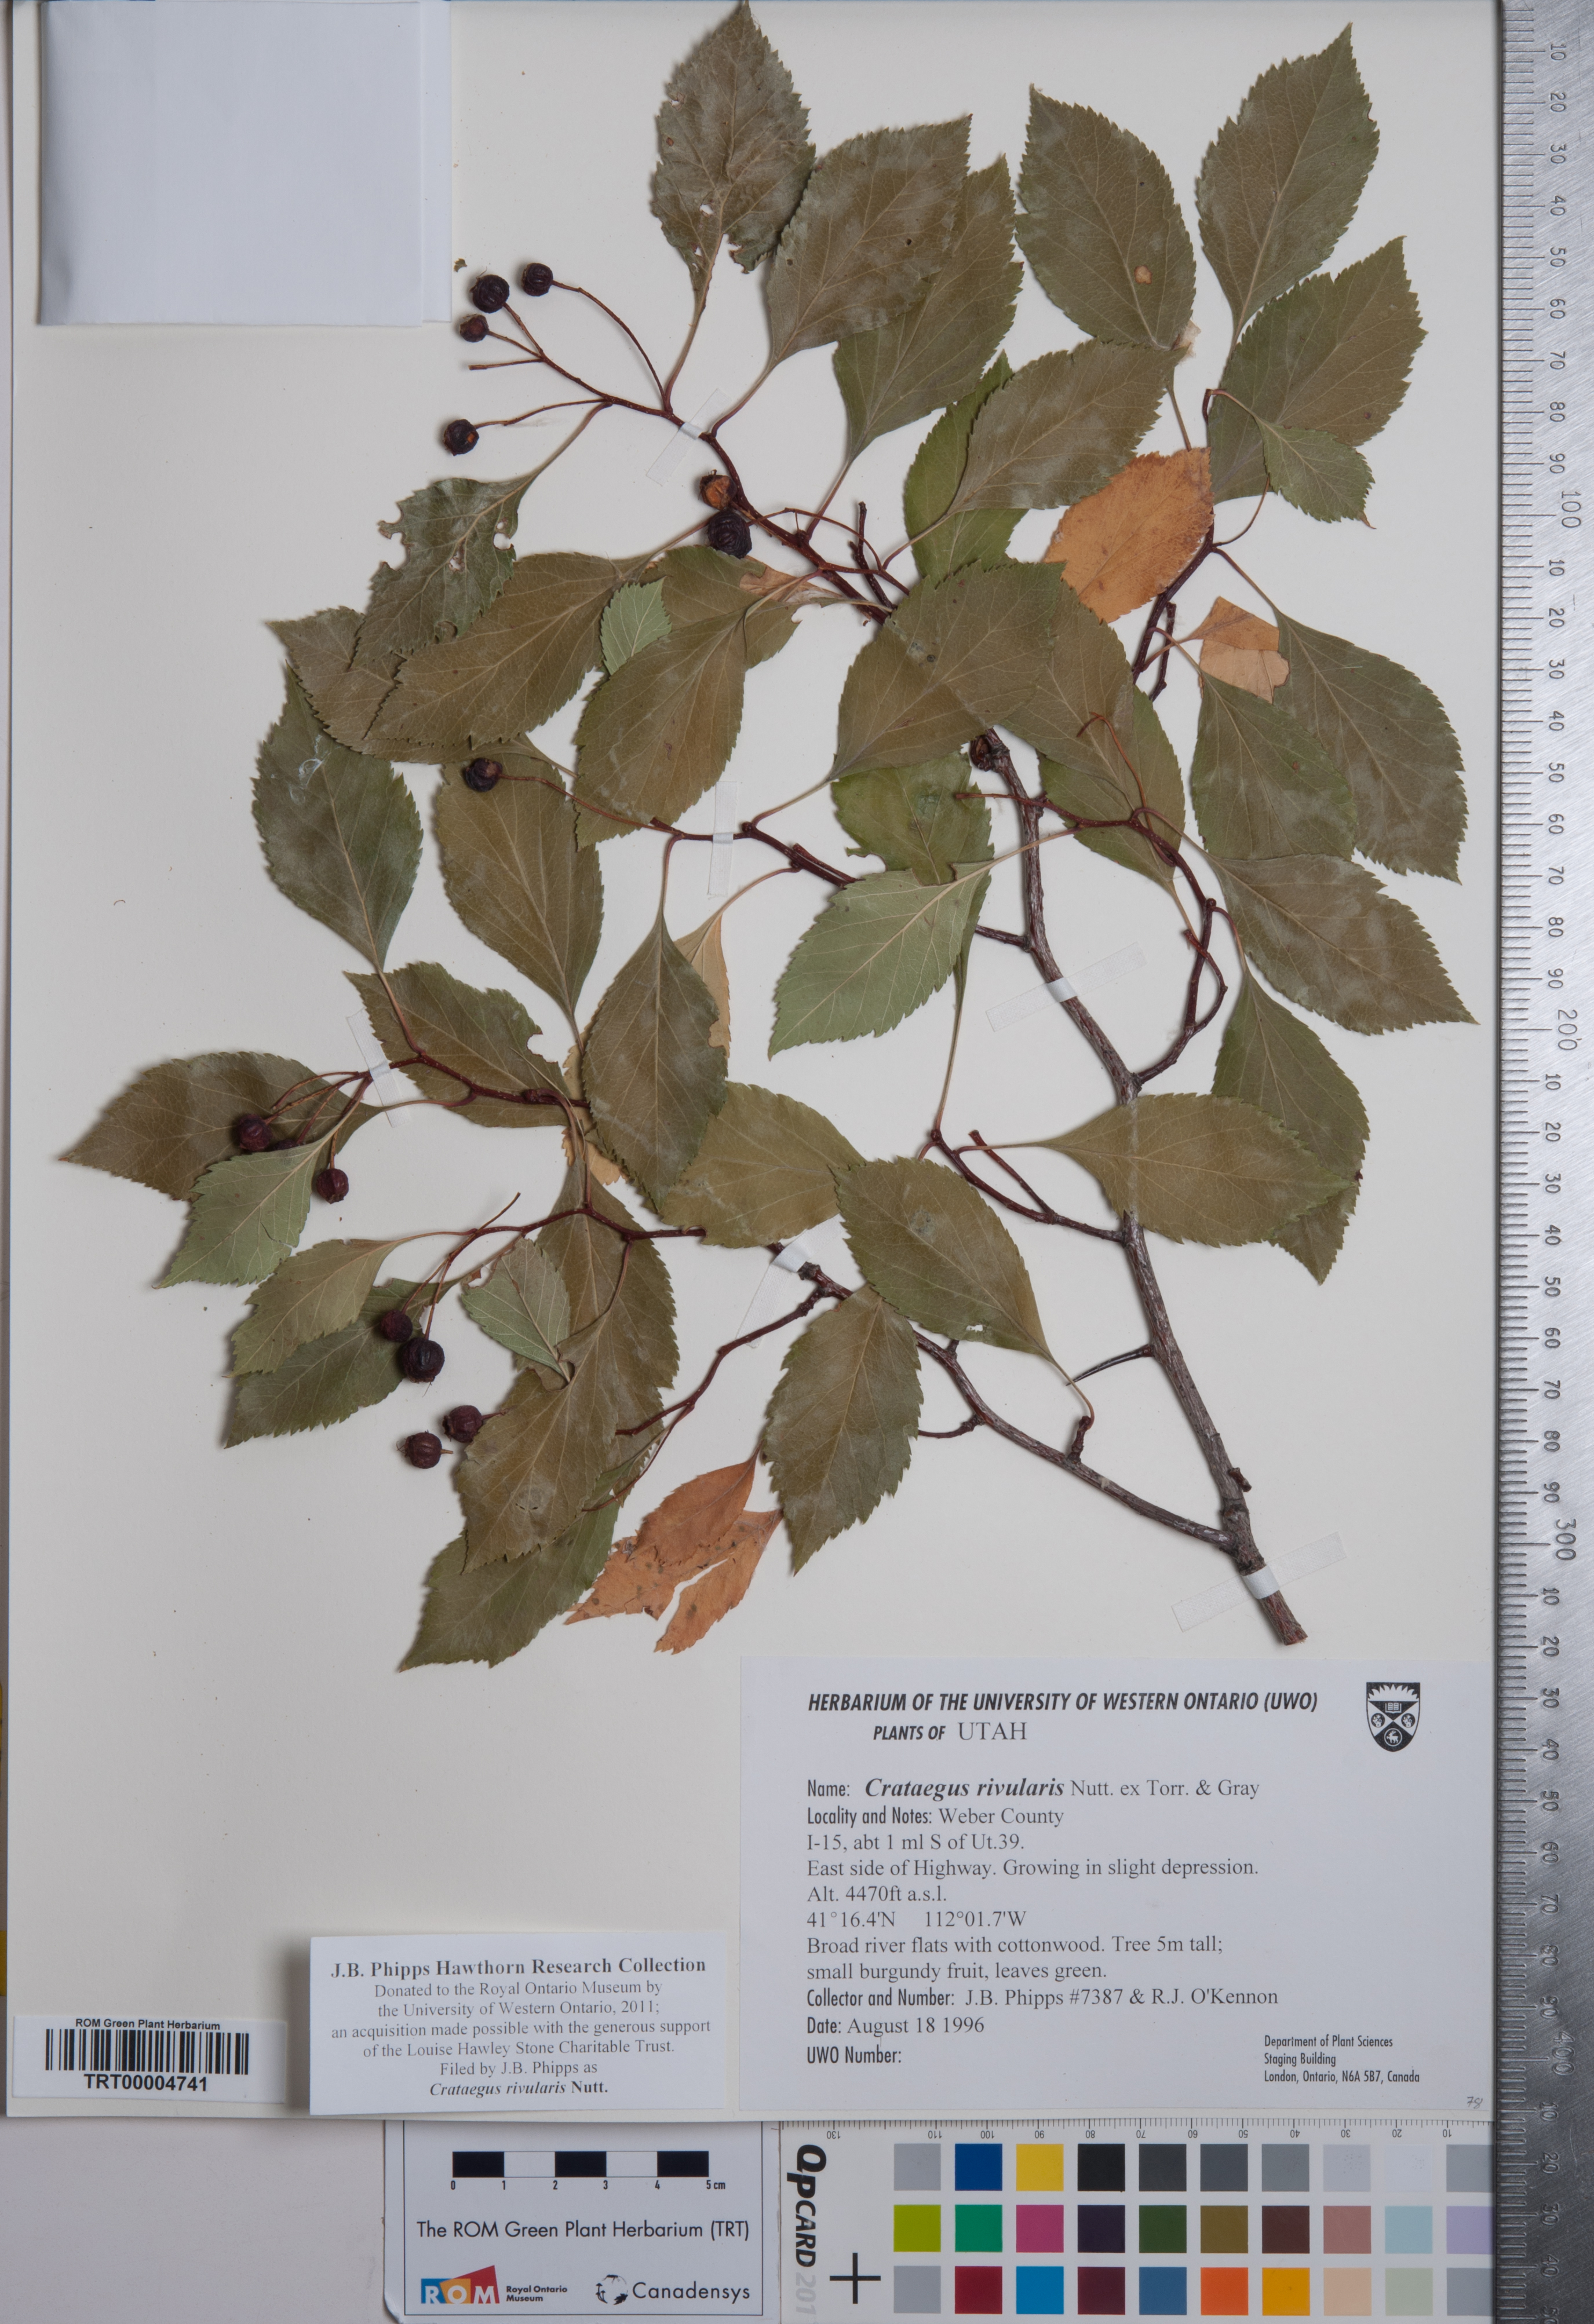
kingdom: Plantae
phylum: Tracheophyta
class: Magnoliopsida
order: Rosales
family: Rosaceae
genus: Crataegus
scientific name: Crataegus rivularis
